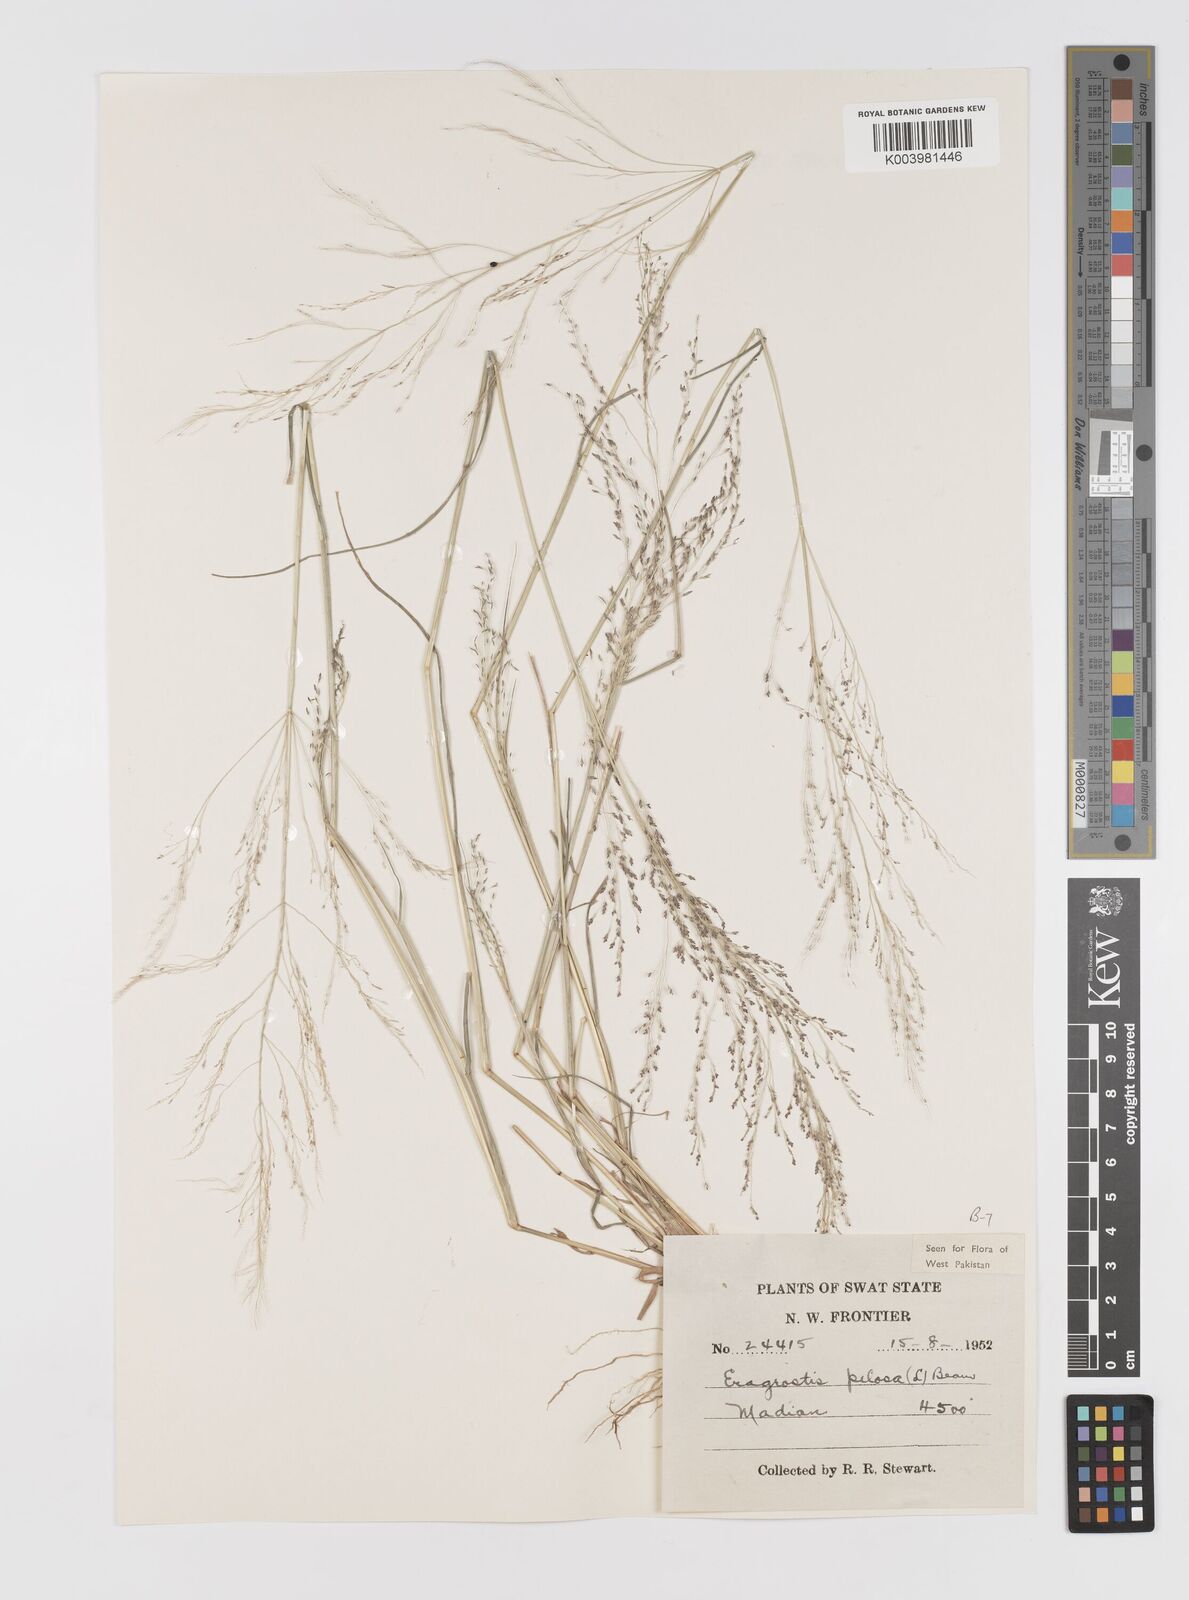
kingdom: Plantae
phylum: Tracheophyta
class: Liliopsida
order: Poales
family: Poaceae
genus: Eragrostis
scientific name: Eragrostis pilosa
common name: Indian lovegrass
